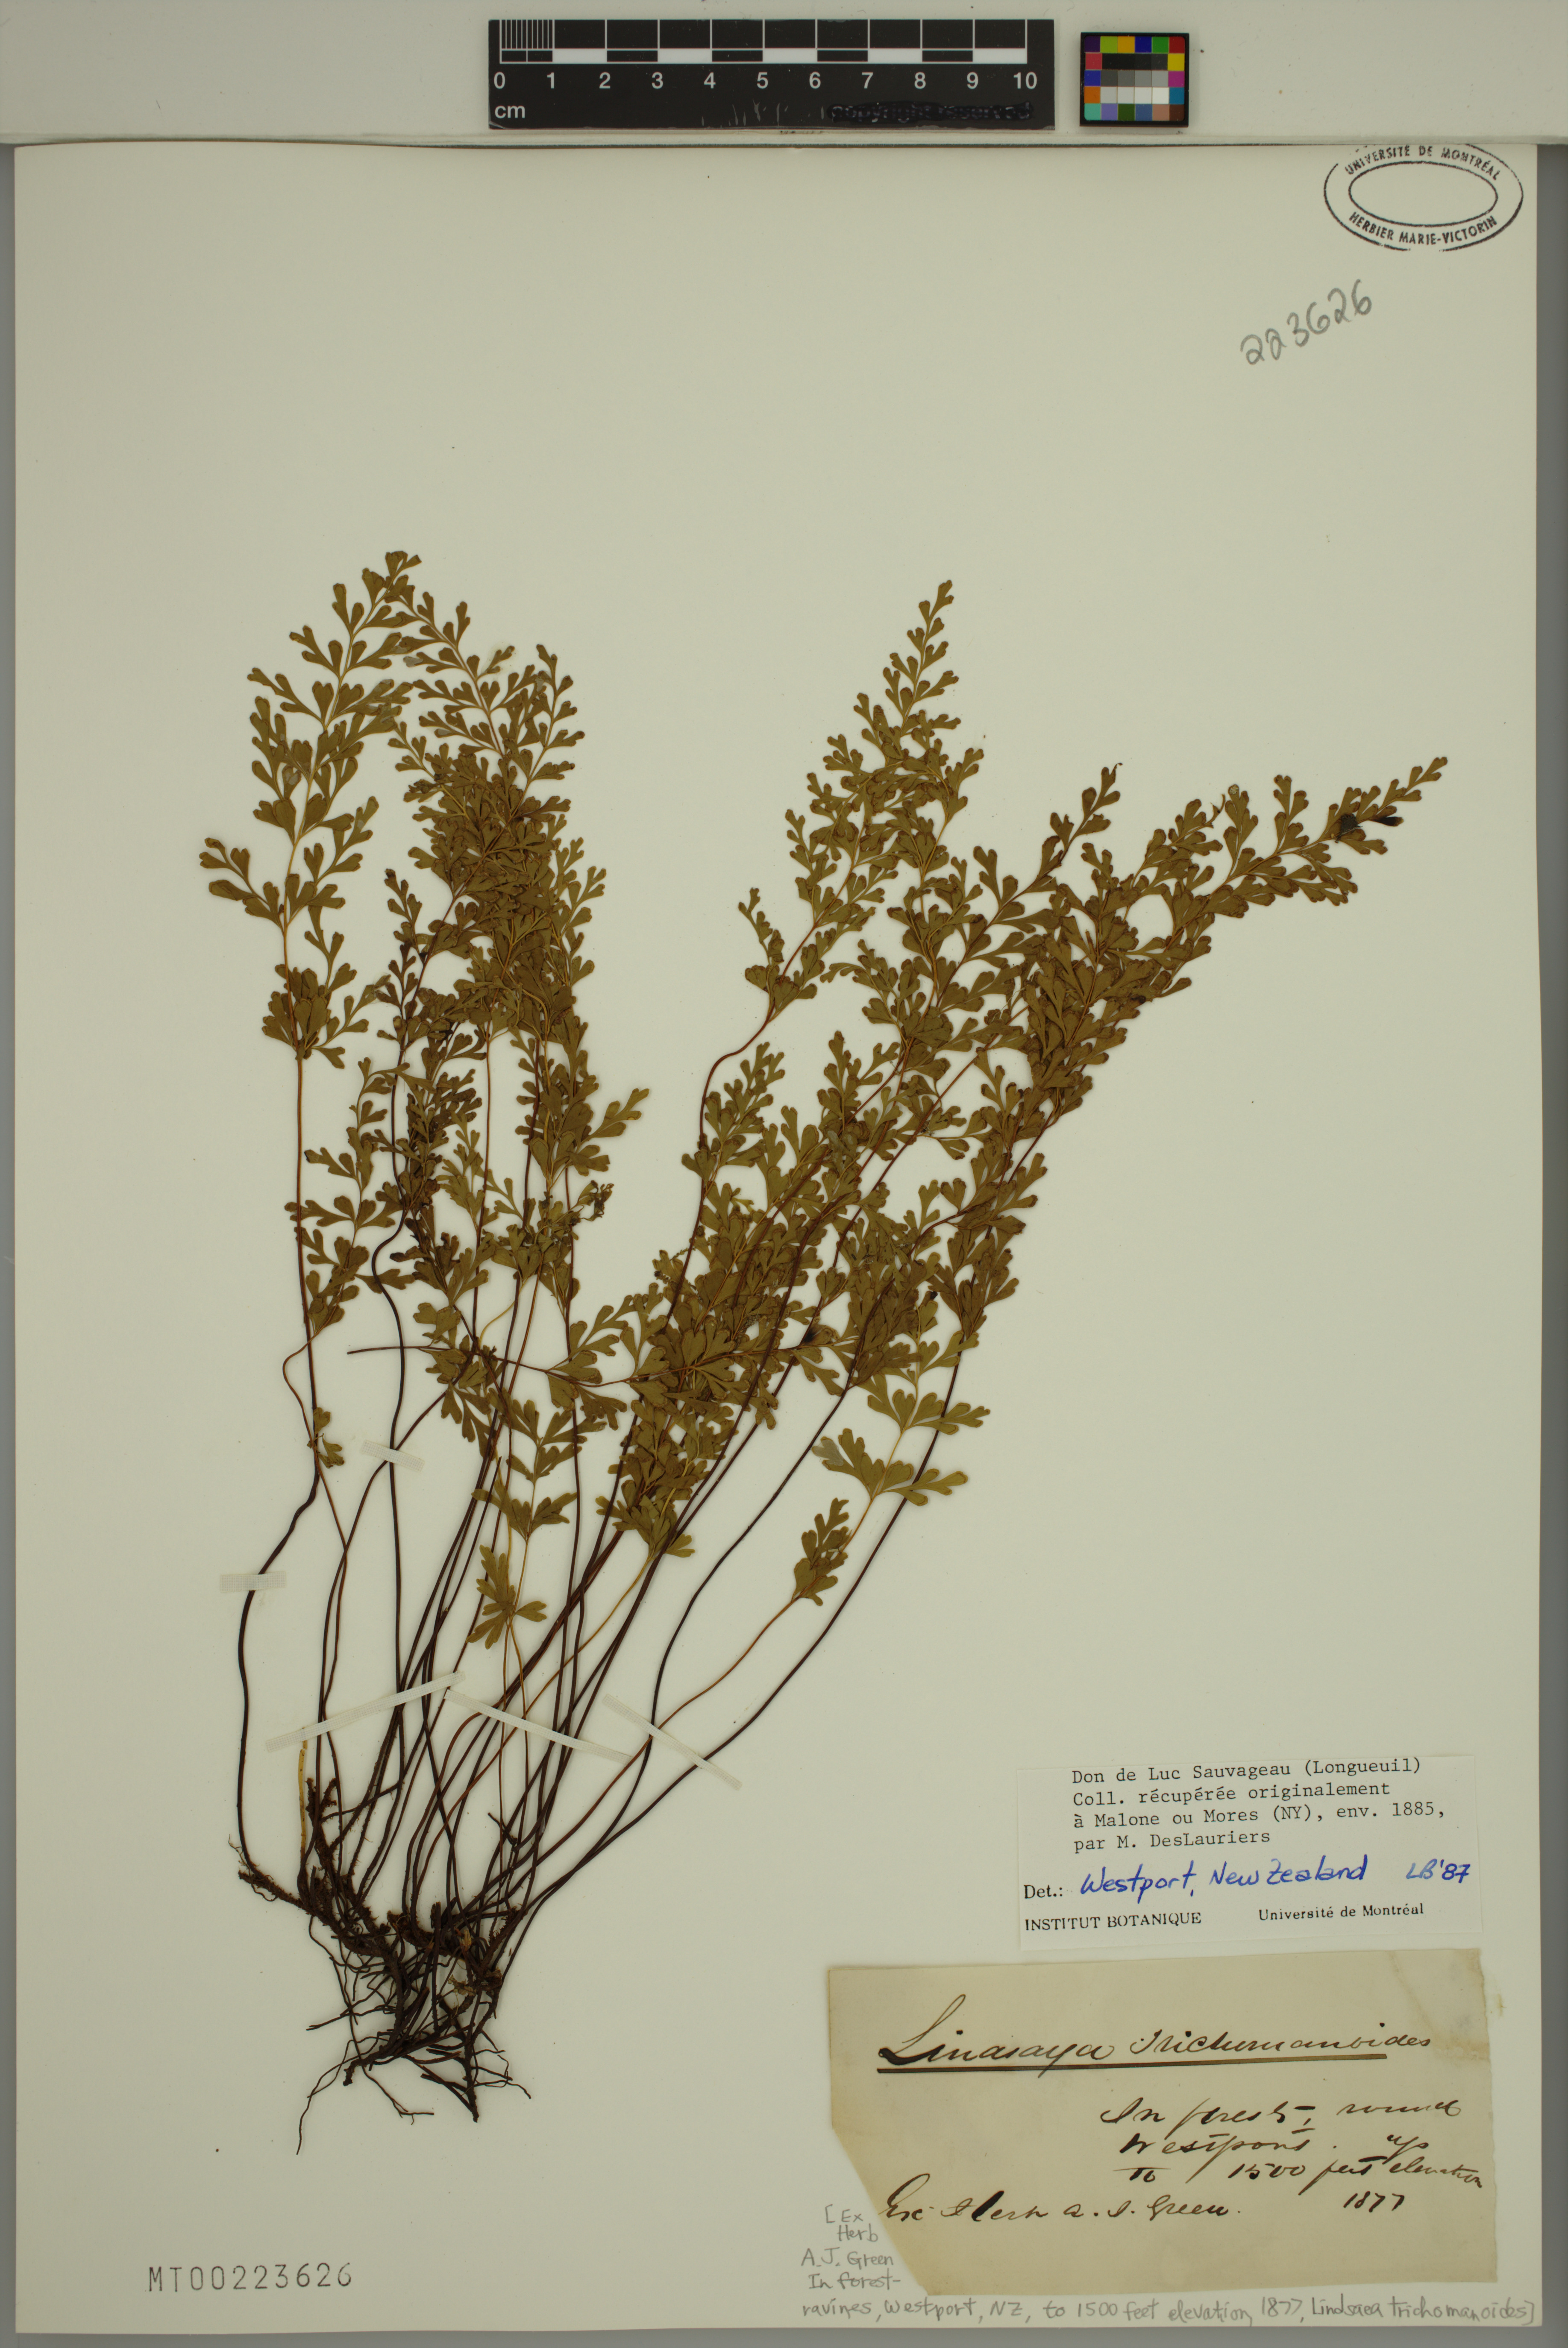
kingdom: Plantae
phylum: Tracheophyta
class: Polypodiopsida
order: Polypodiales
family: Lindsaeaceae
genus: Lindsaea
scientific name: Lindsaea trichomanoides
